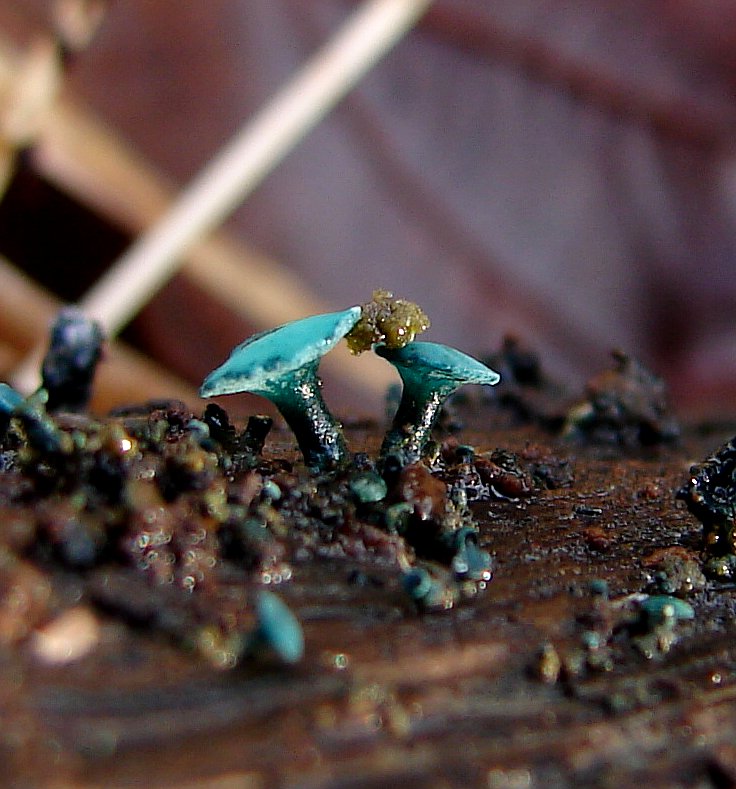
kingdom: Fungi
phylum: Ascomycota
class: Leotiomycetes
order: Helotiales
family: Chlorociboriaceae
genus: Chlorociboria
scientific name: Chlorociboria aeruginascens
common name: almindelig grønskive
